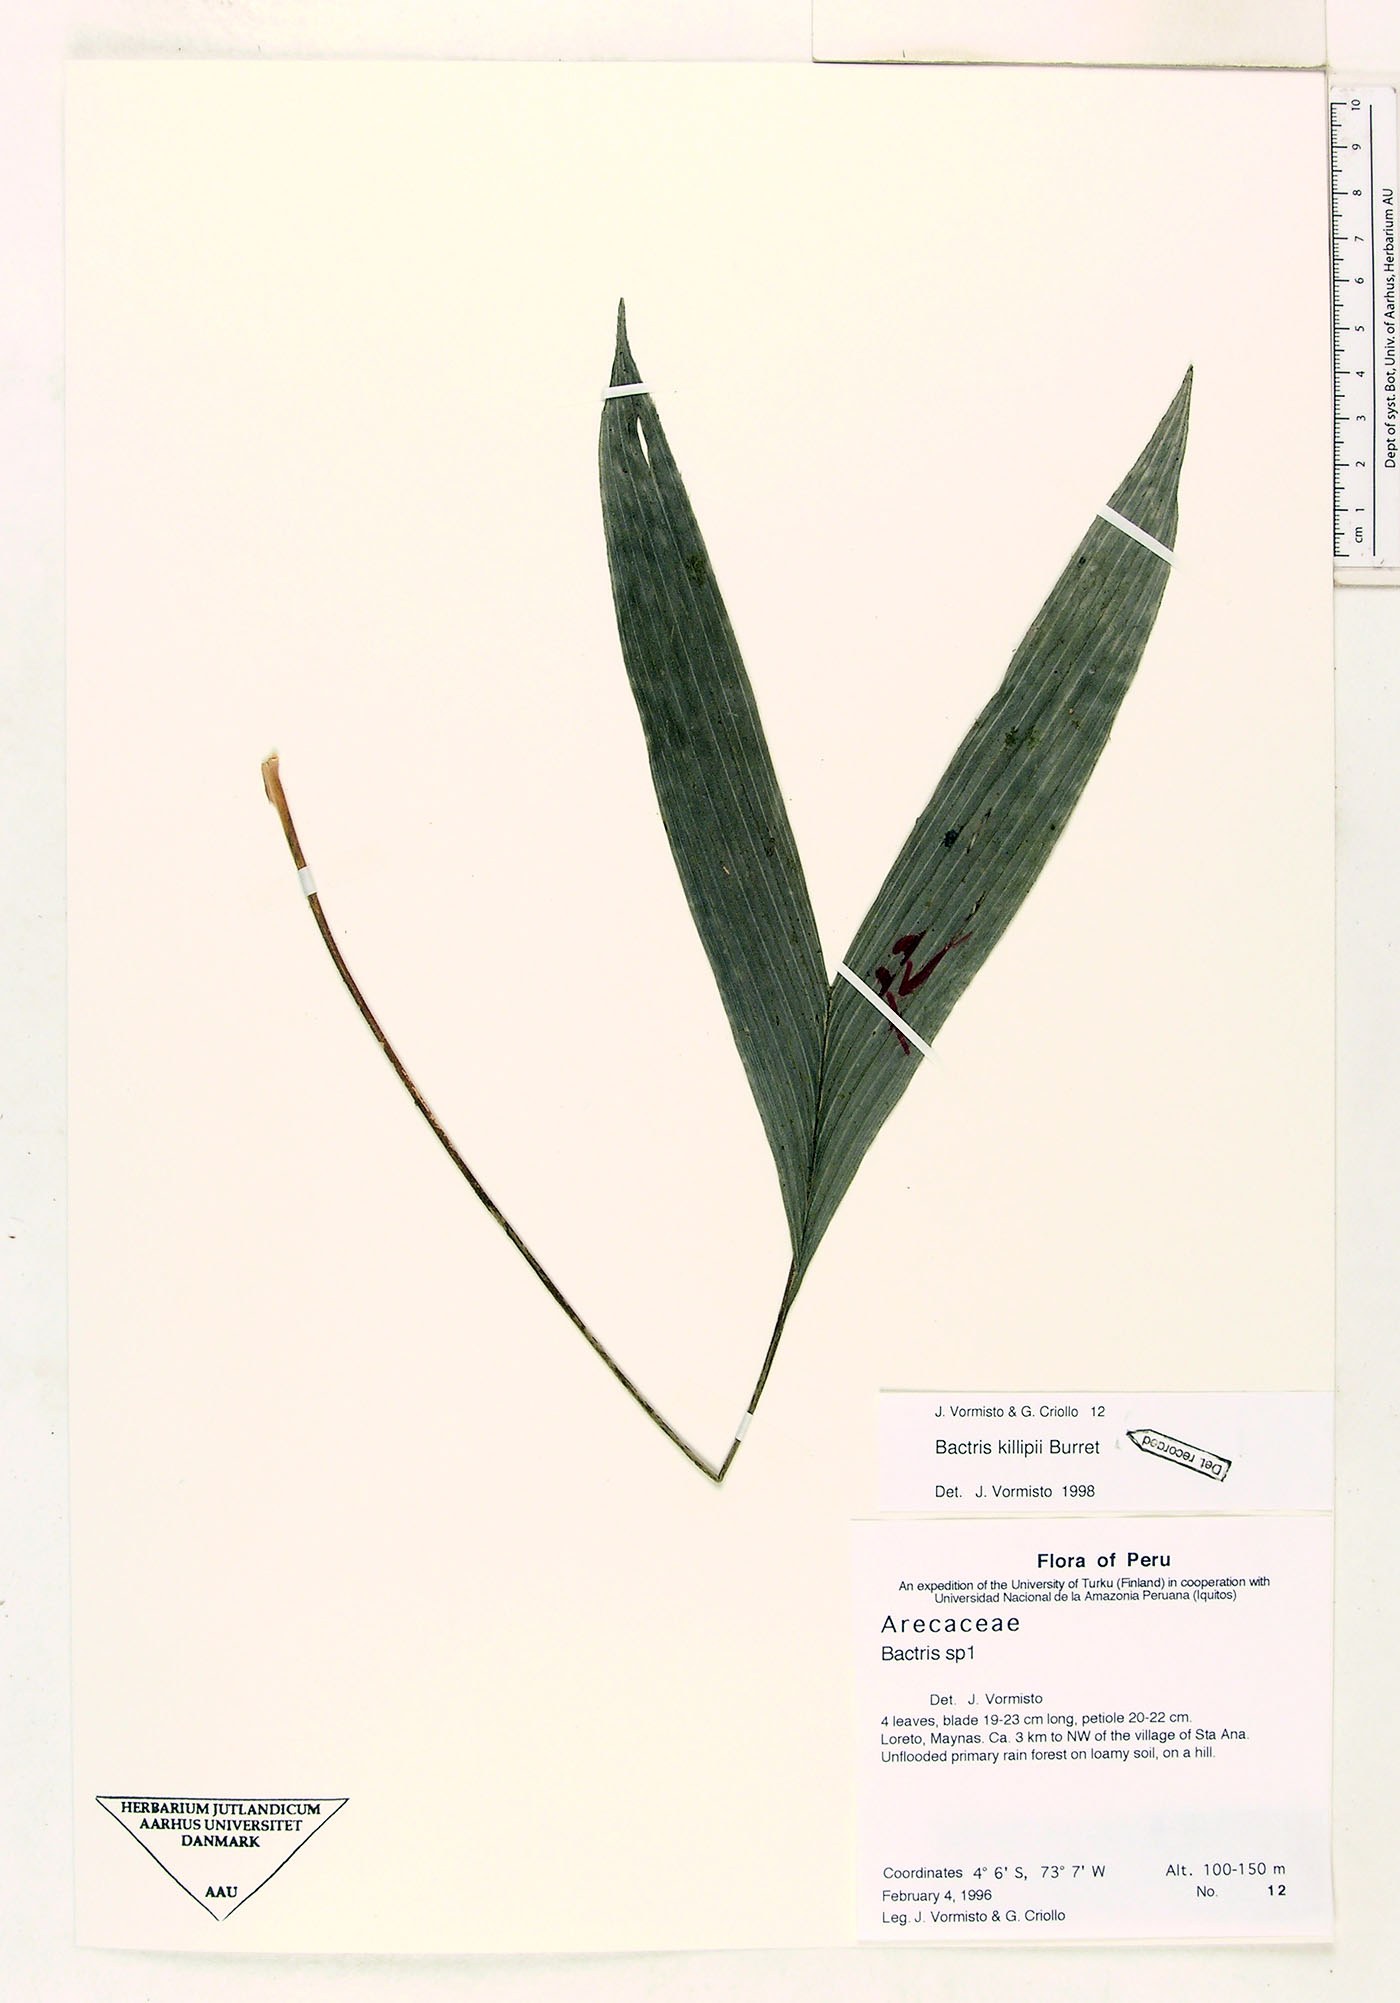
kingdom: Plantae
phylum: Tracheophyta
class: Liliopsida
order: Arecales
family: Arecaceae
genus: Bactris
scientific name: Bactris killipii
